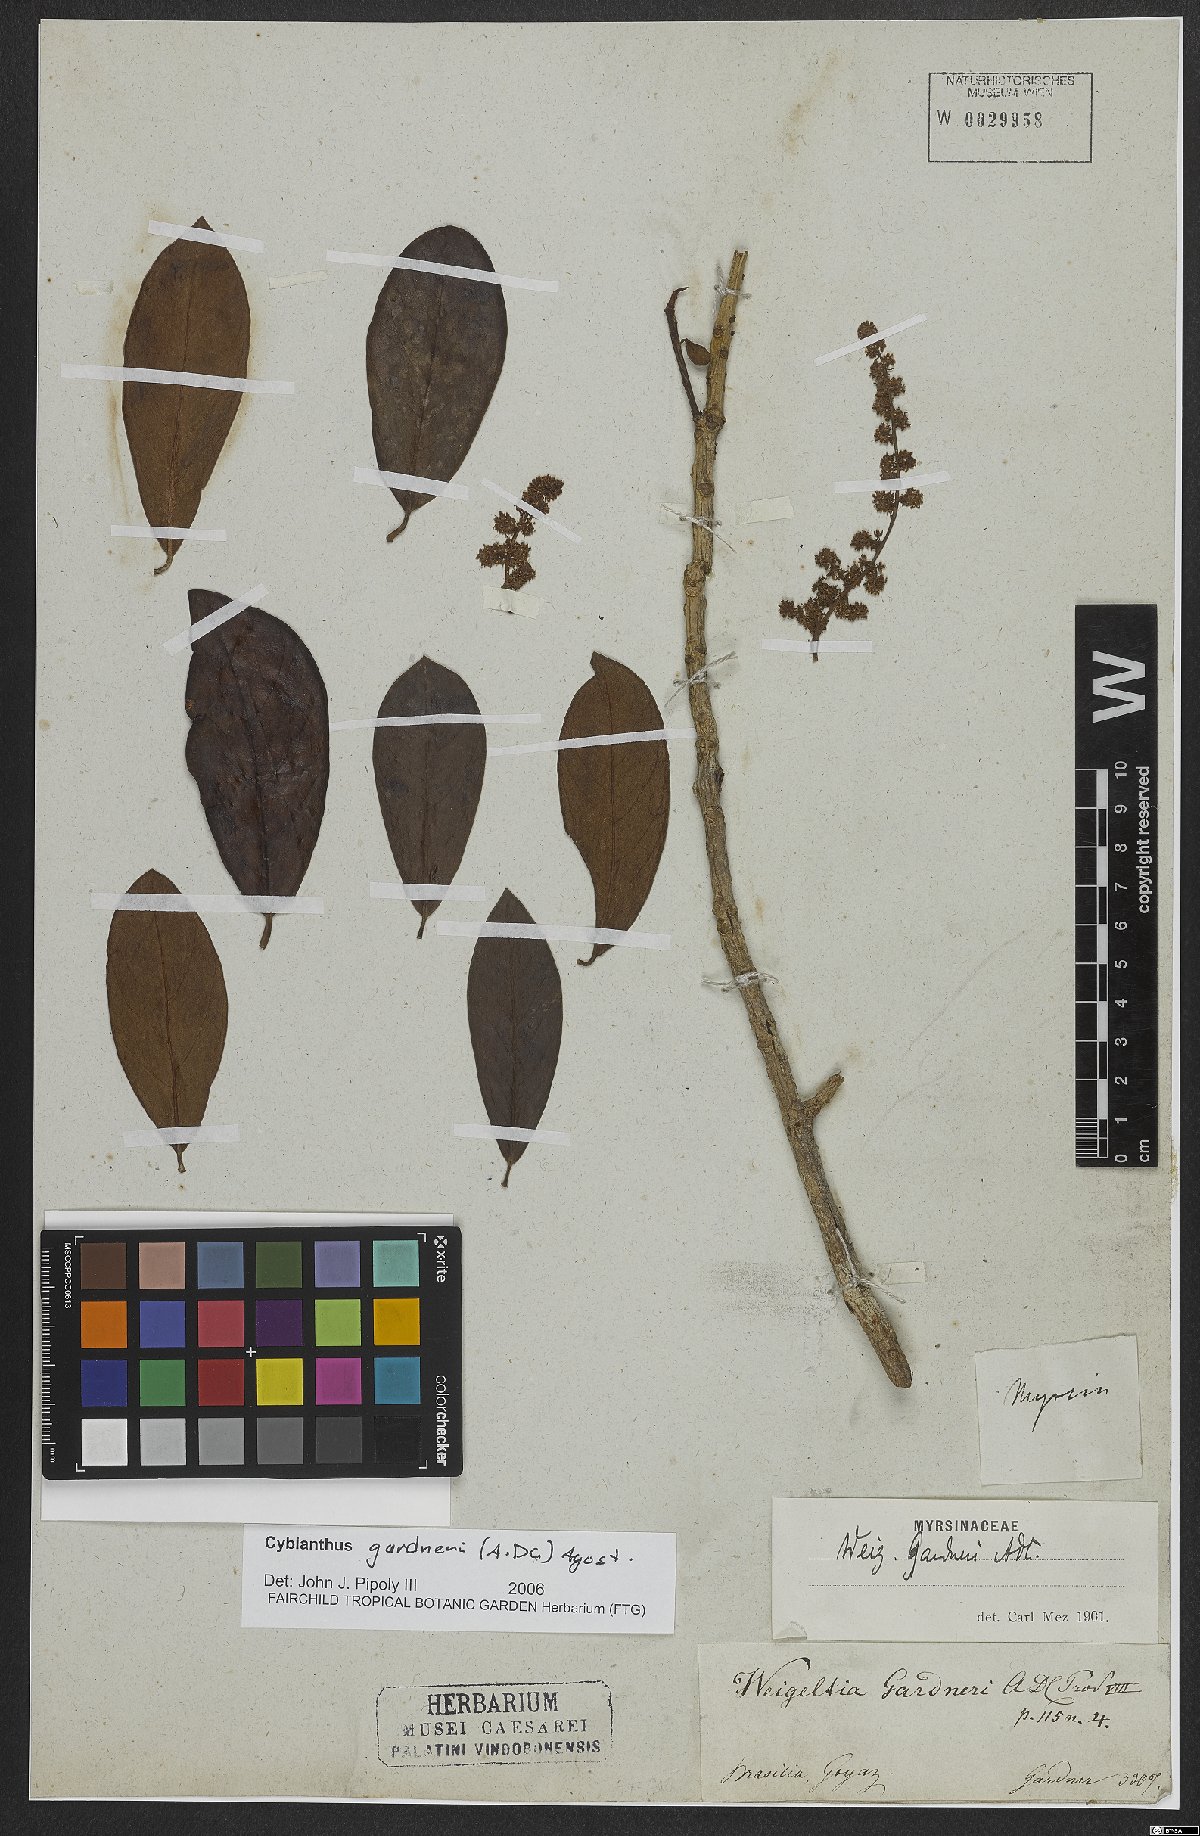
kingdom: Plantae
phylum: Tracheophyta
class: Magnoliopsida
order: Ericales
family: Primulaceae
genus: Cybianthus
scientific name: Cybianthus gardneri
